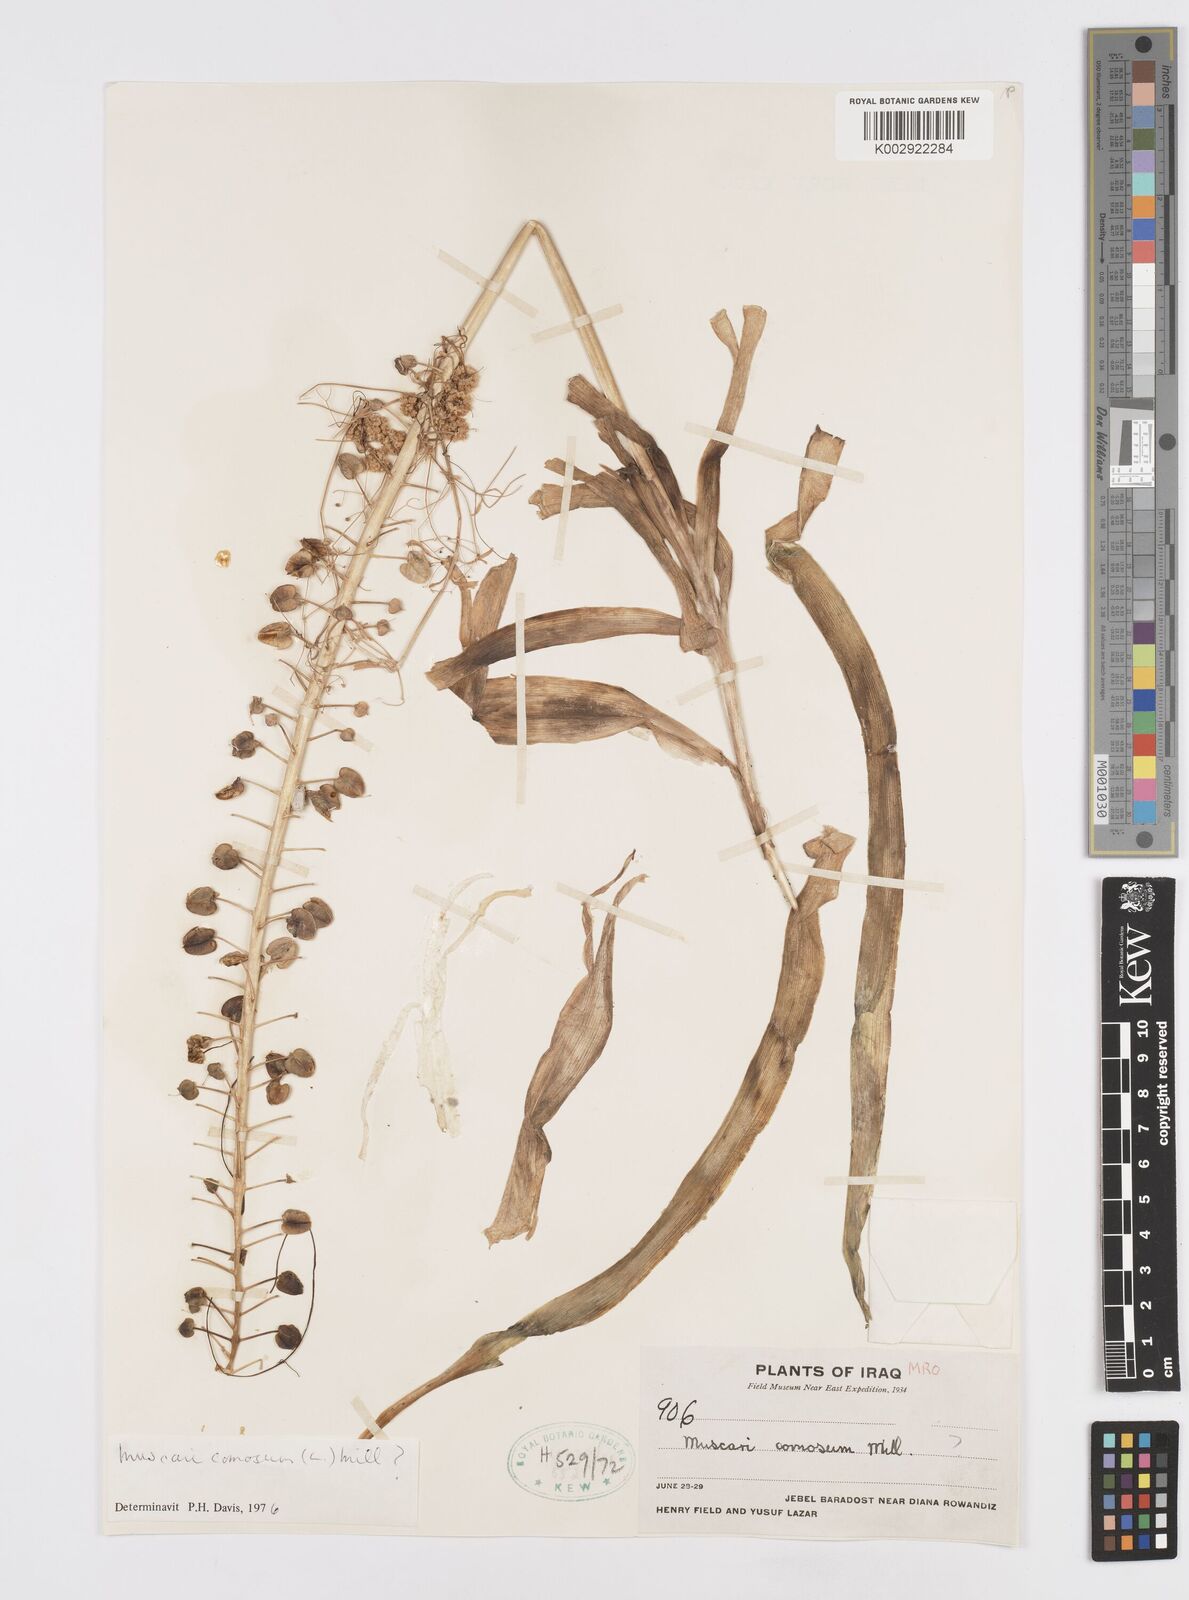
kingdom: Plantae
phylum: Tracheophyta
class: Liliopsida
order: Asparagales
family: Asparagaceae
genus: Muscari
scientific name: Muscari comosum
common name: Tassel hyacinth
